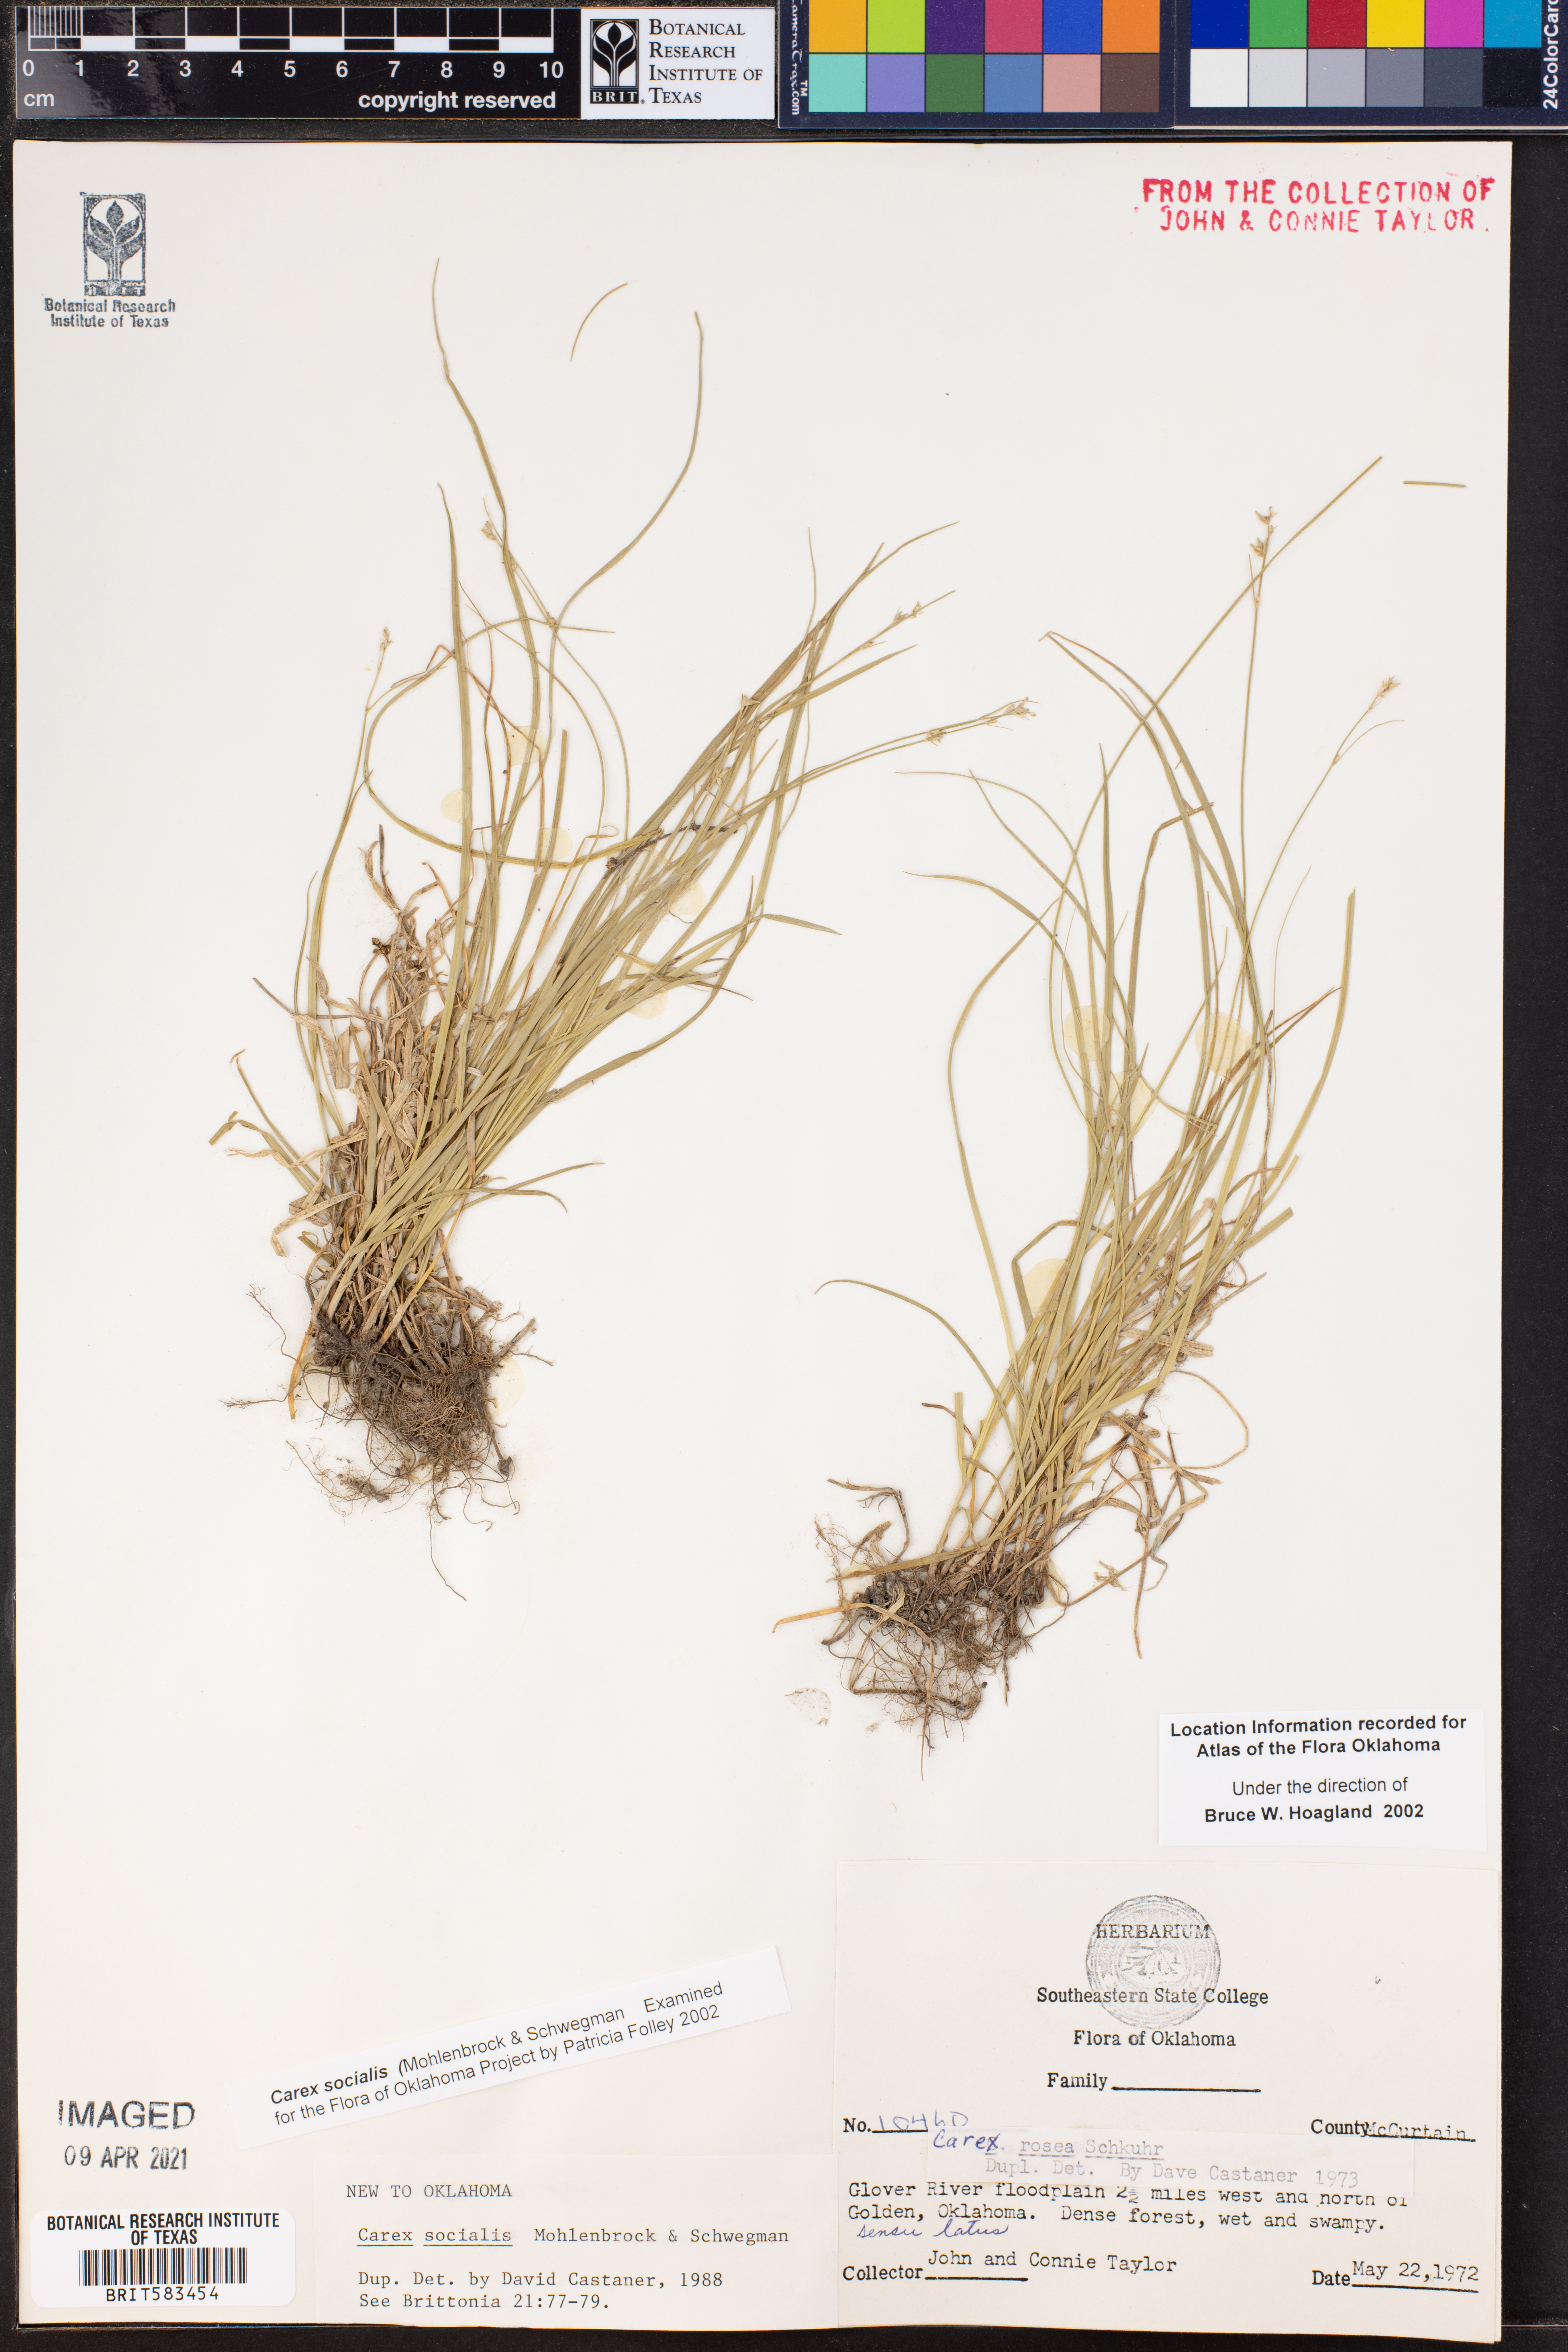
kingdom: Plantae
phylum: Tracheophyta
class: Liliopsida
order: Poales
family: Cyperaceae
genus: Carex
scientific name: Carex socialis
